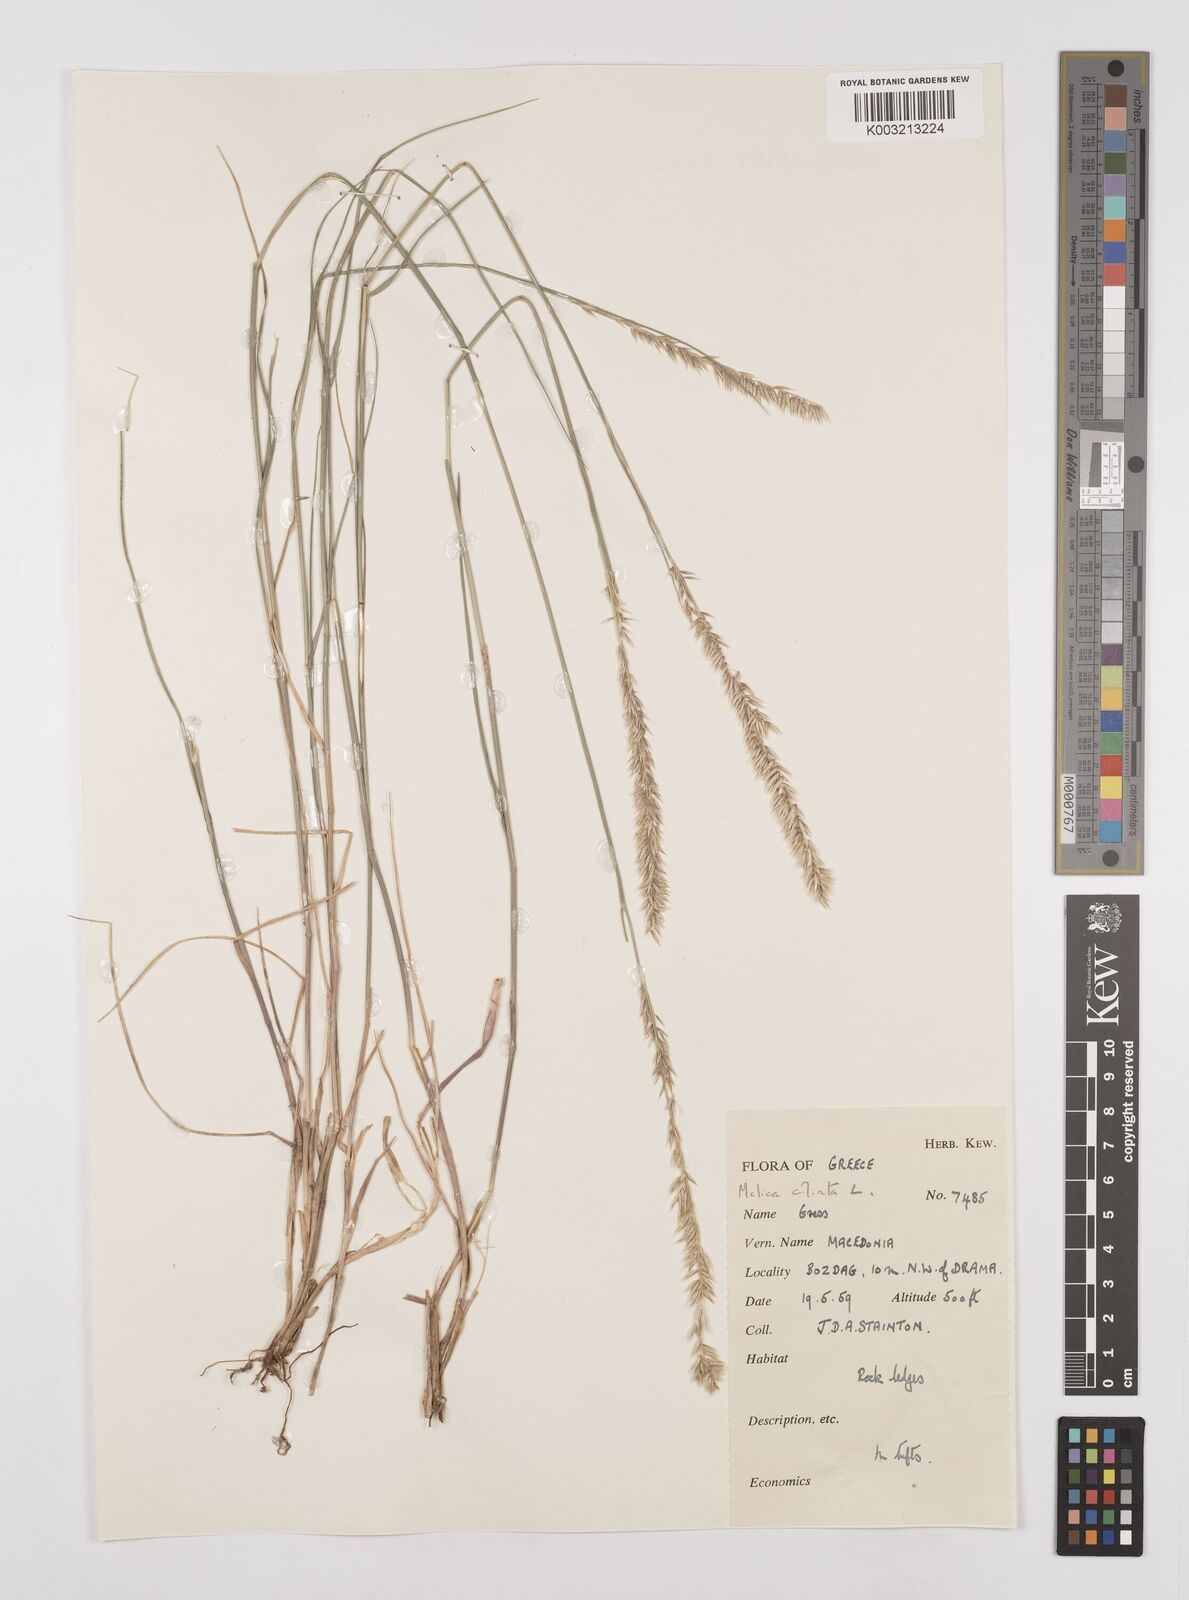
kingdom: Plantae
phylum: Tracheophyta
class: Liliopsida
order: Poales
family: Poaceae
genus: Melica
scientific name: Melica ciliata
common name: Hairy melicgrass
